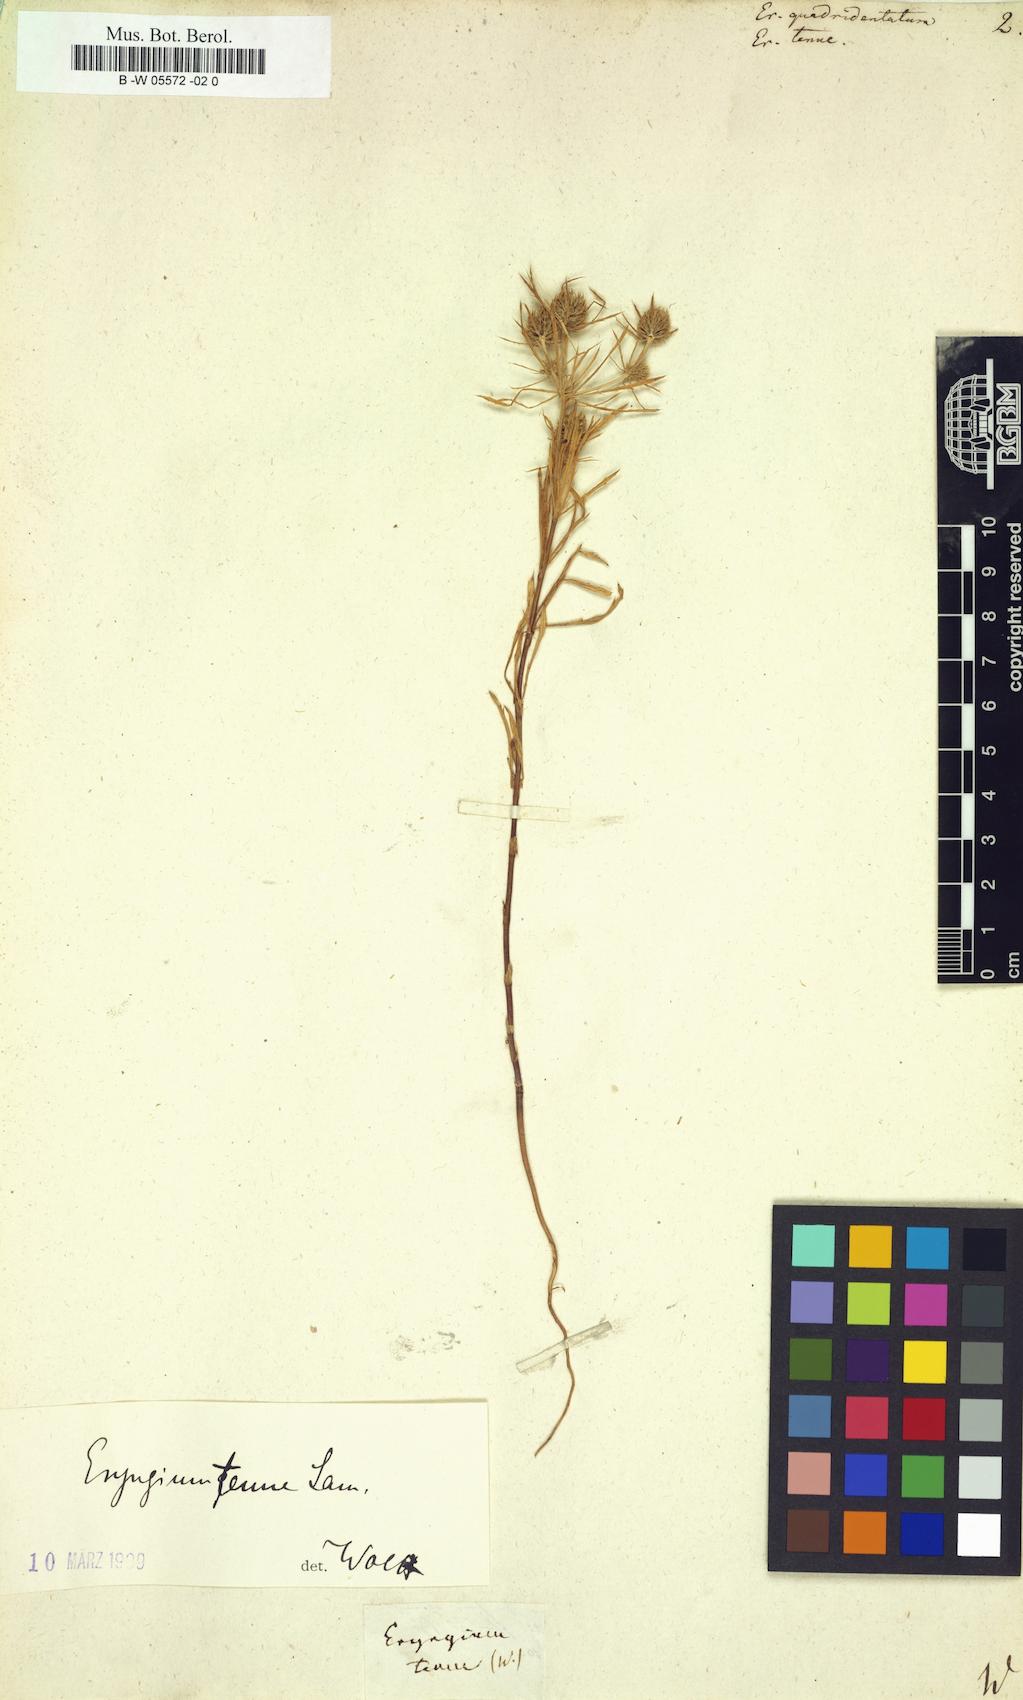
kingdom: Plantae
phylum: Tracheophyta
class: Magnoliopsida
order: Apiales
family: Apiaceae
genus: Eryngium
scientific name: Eryngium
